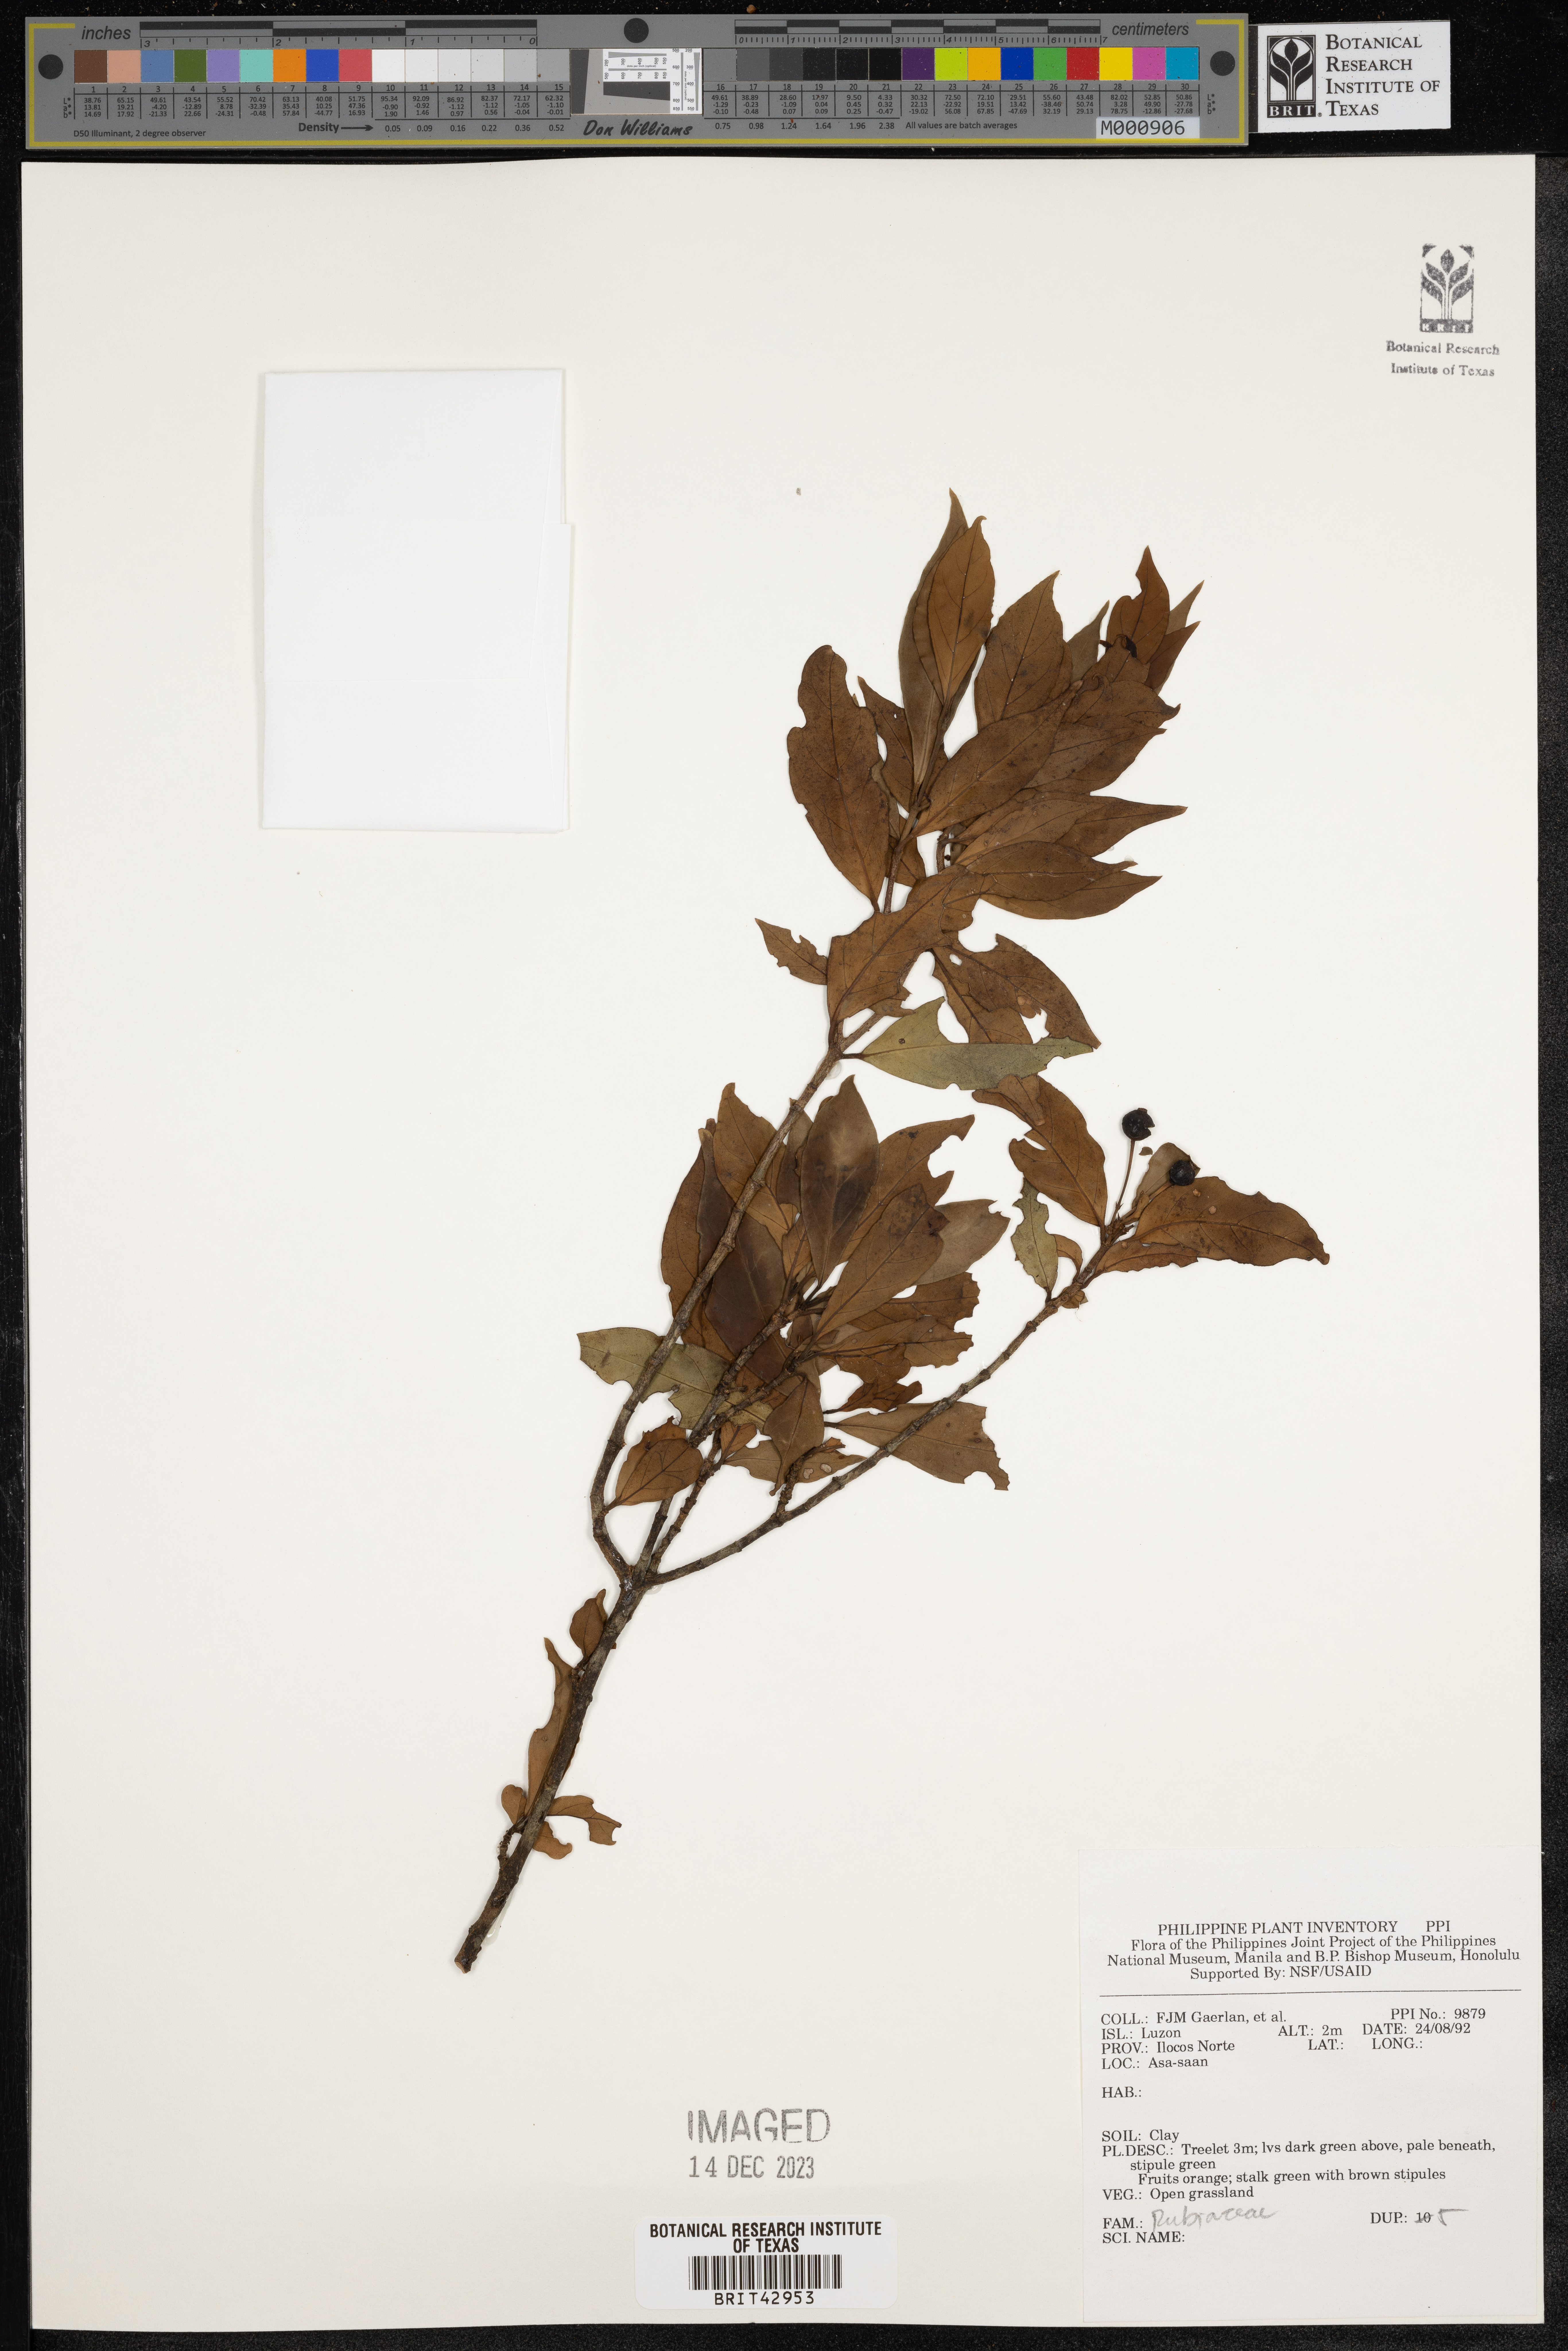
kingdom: Plantae
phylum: Tracheophyta
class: Magnoliopsida
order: Gentianales
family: Rubiaceae
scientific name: Rubiaceae
